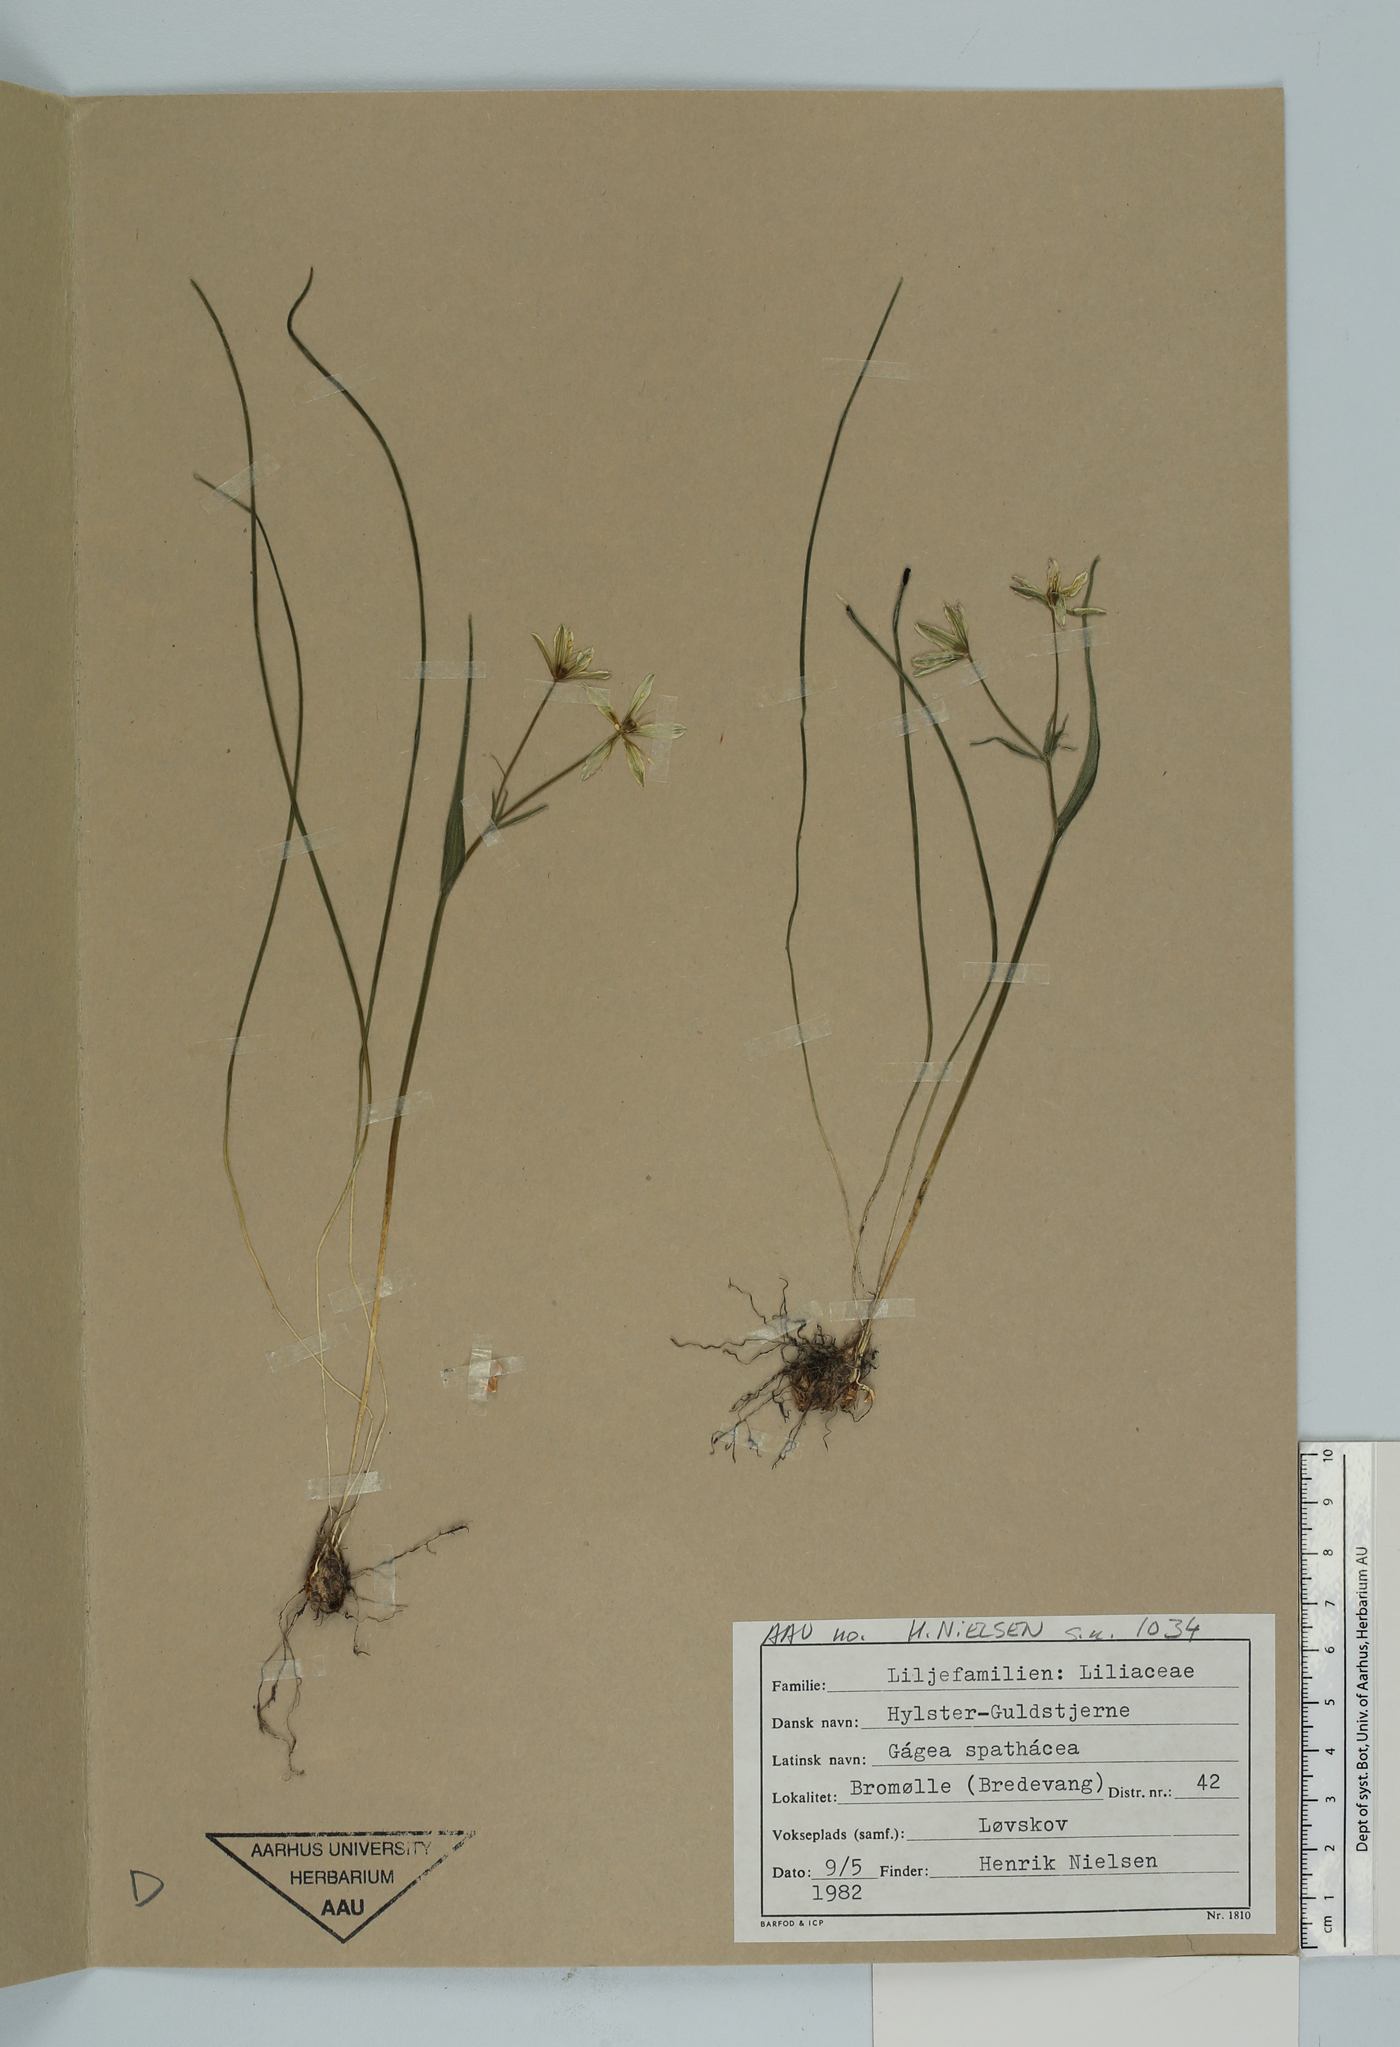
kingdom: Plantae
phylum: Tracheophyta
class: Liliopsida
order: Liliales
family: Liliaceae
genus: Gagea
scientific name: Gagea spathacea
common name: Belgian gagea
